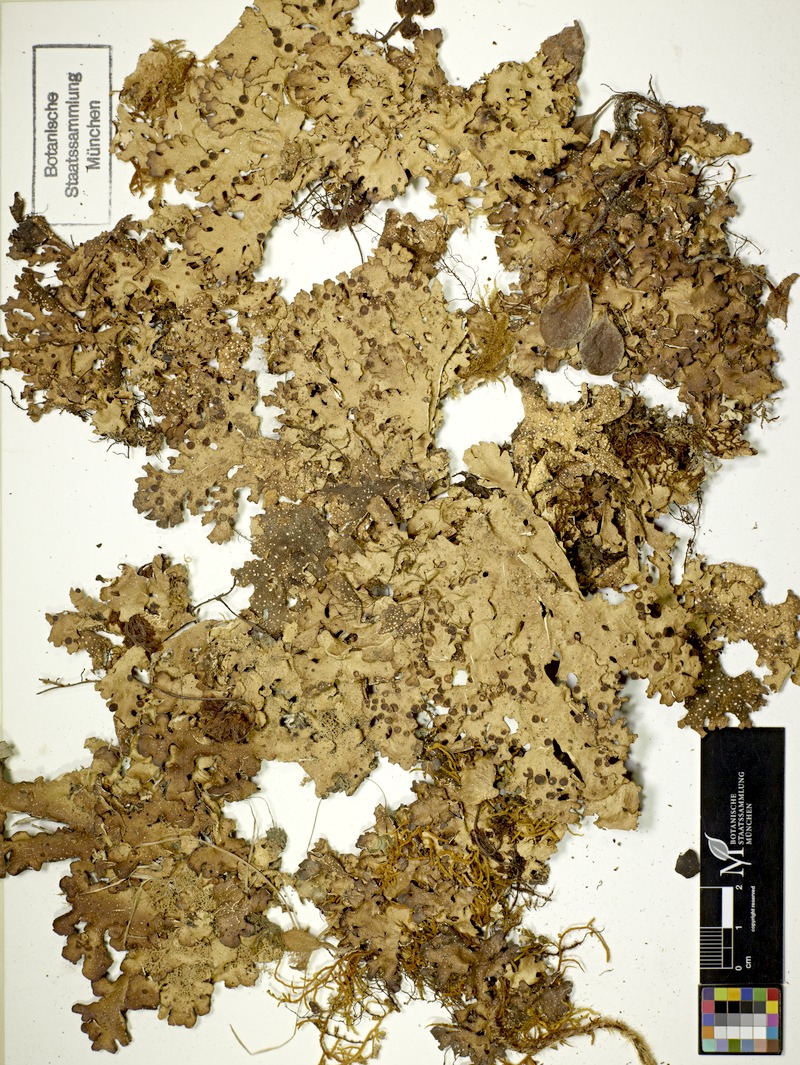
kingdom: Fungi
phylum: Ascomycota
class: Lecanoromycetes
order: Peltigerales
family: Lobariaceae
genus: Pseudocyphellaria
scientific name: Pseudocyphellaria lividofusca
